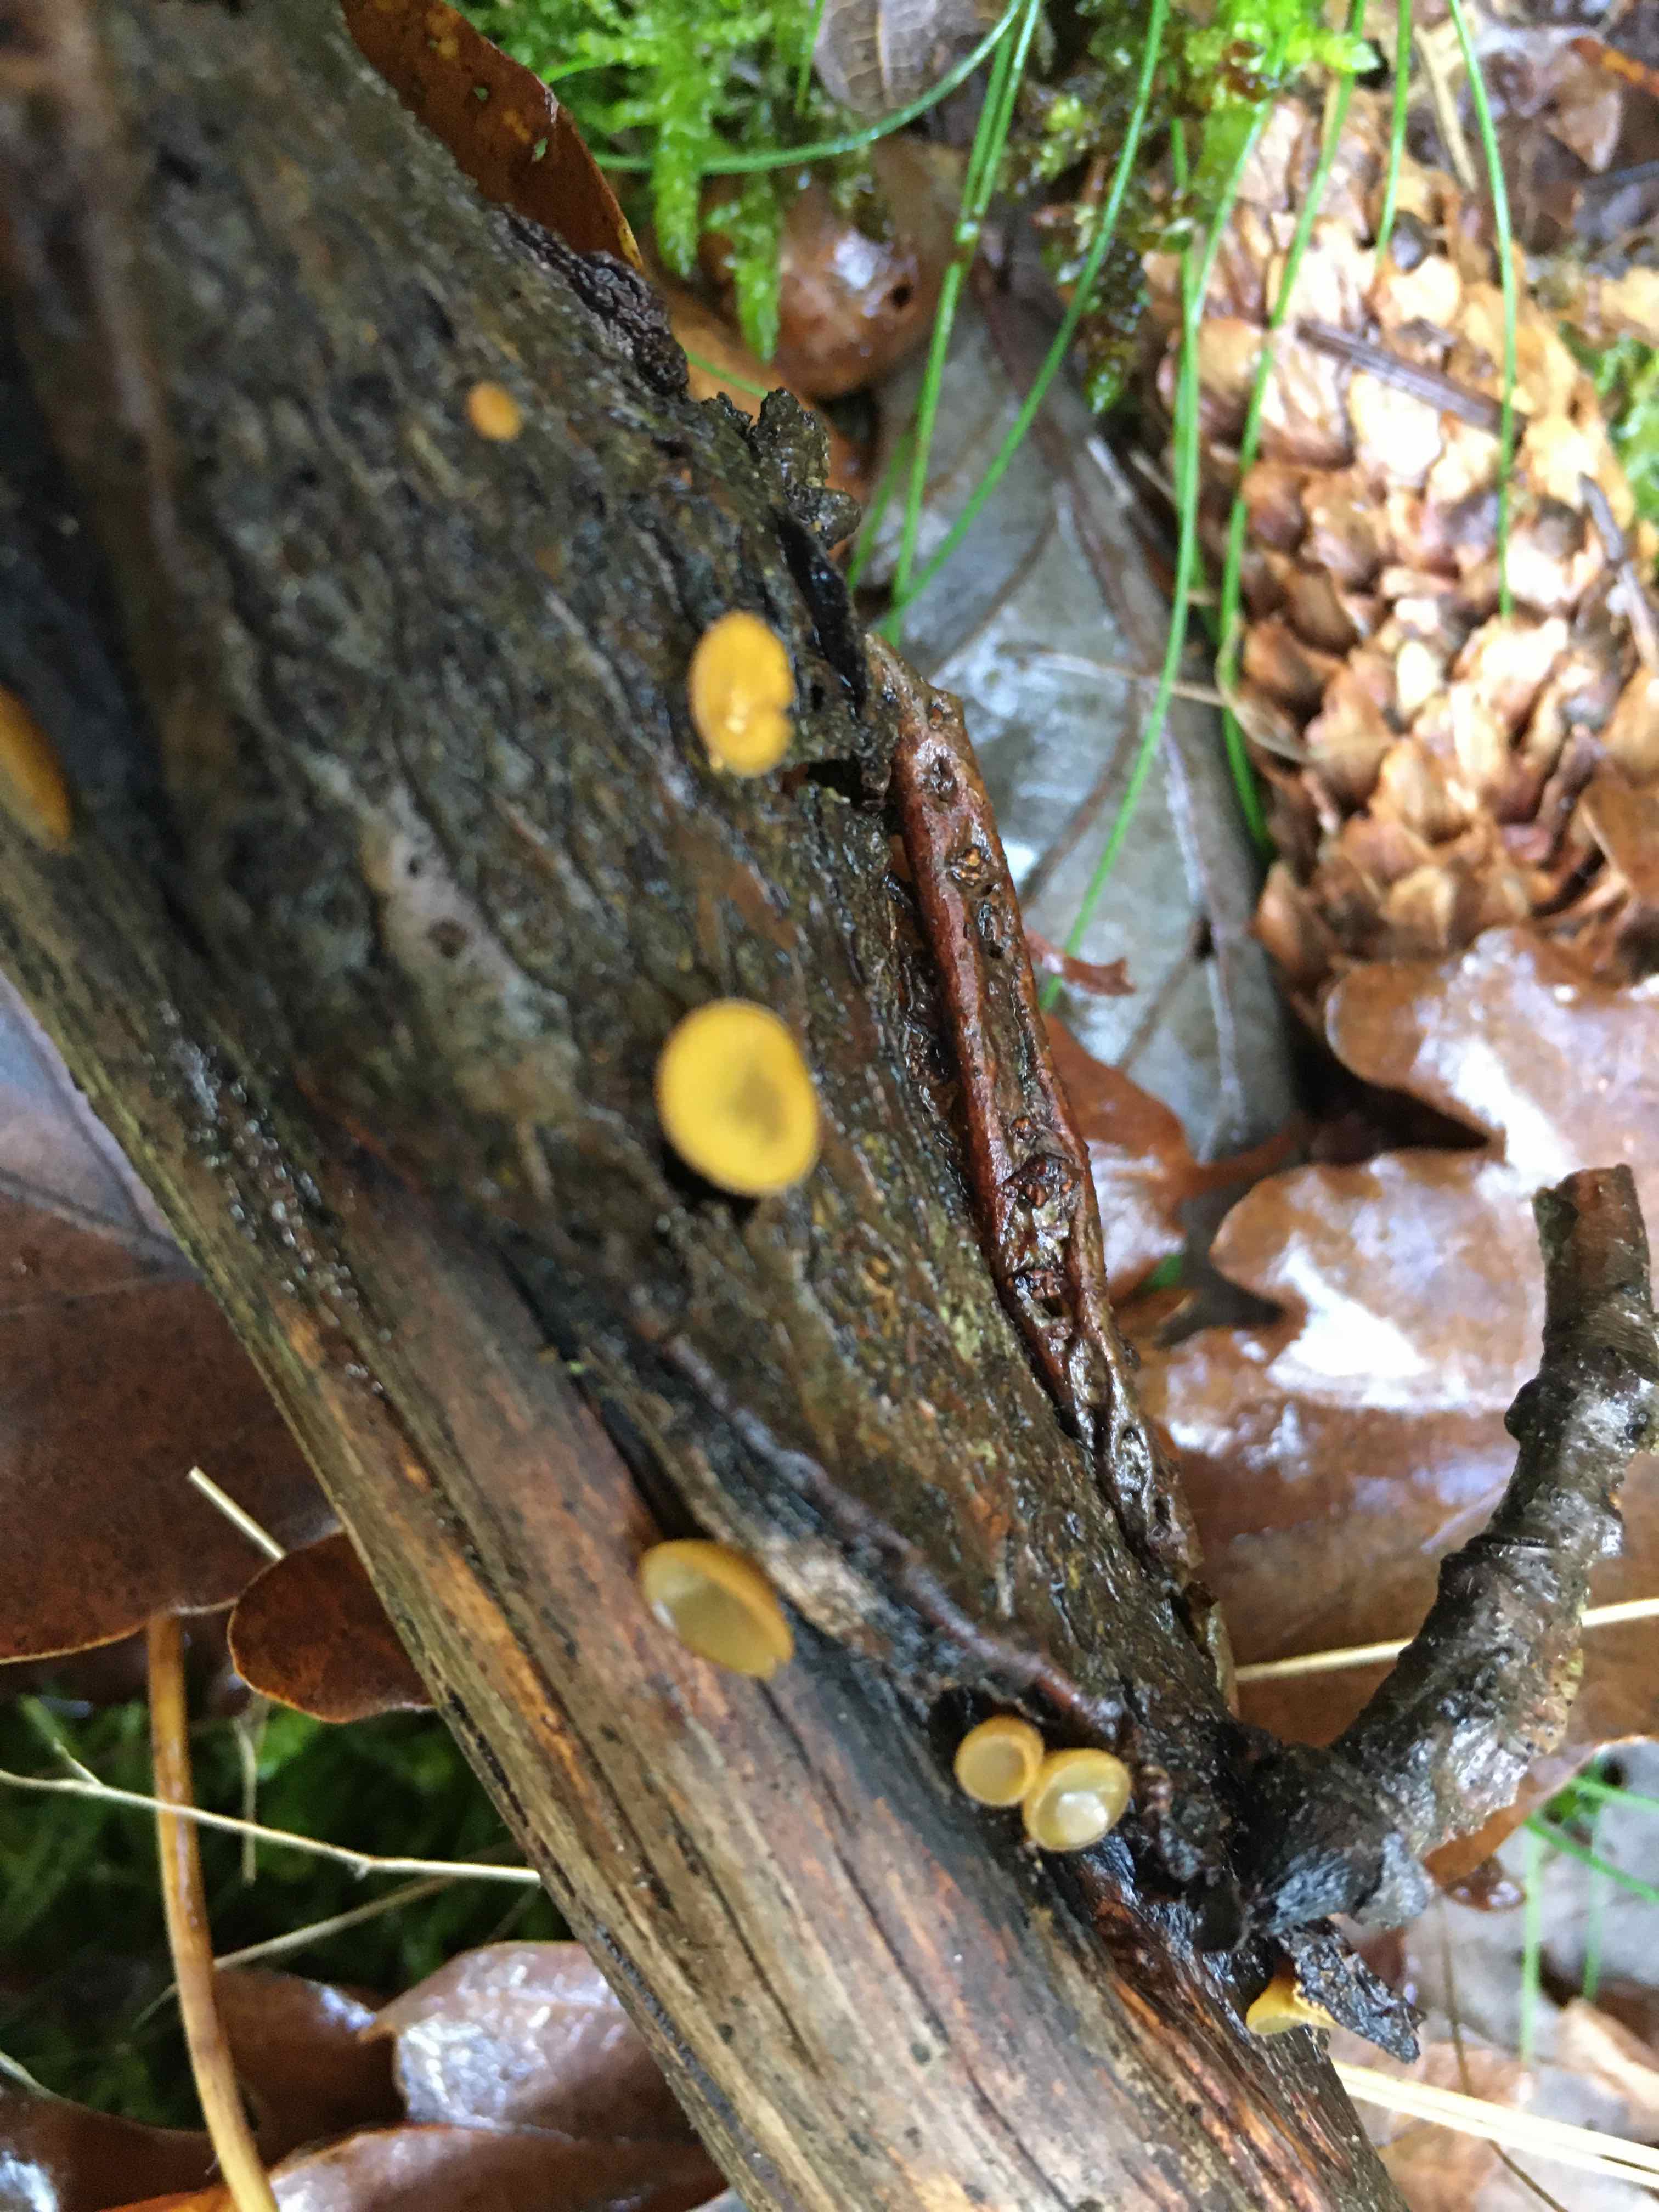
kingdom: Fungi
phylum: Ascomycota
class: Leotiomycetes
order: Helotiales
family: Rutstroemiaceae
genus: Rutstroemia
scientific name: Rutstroemia
